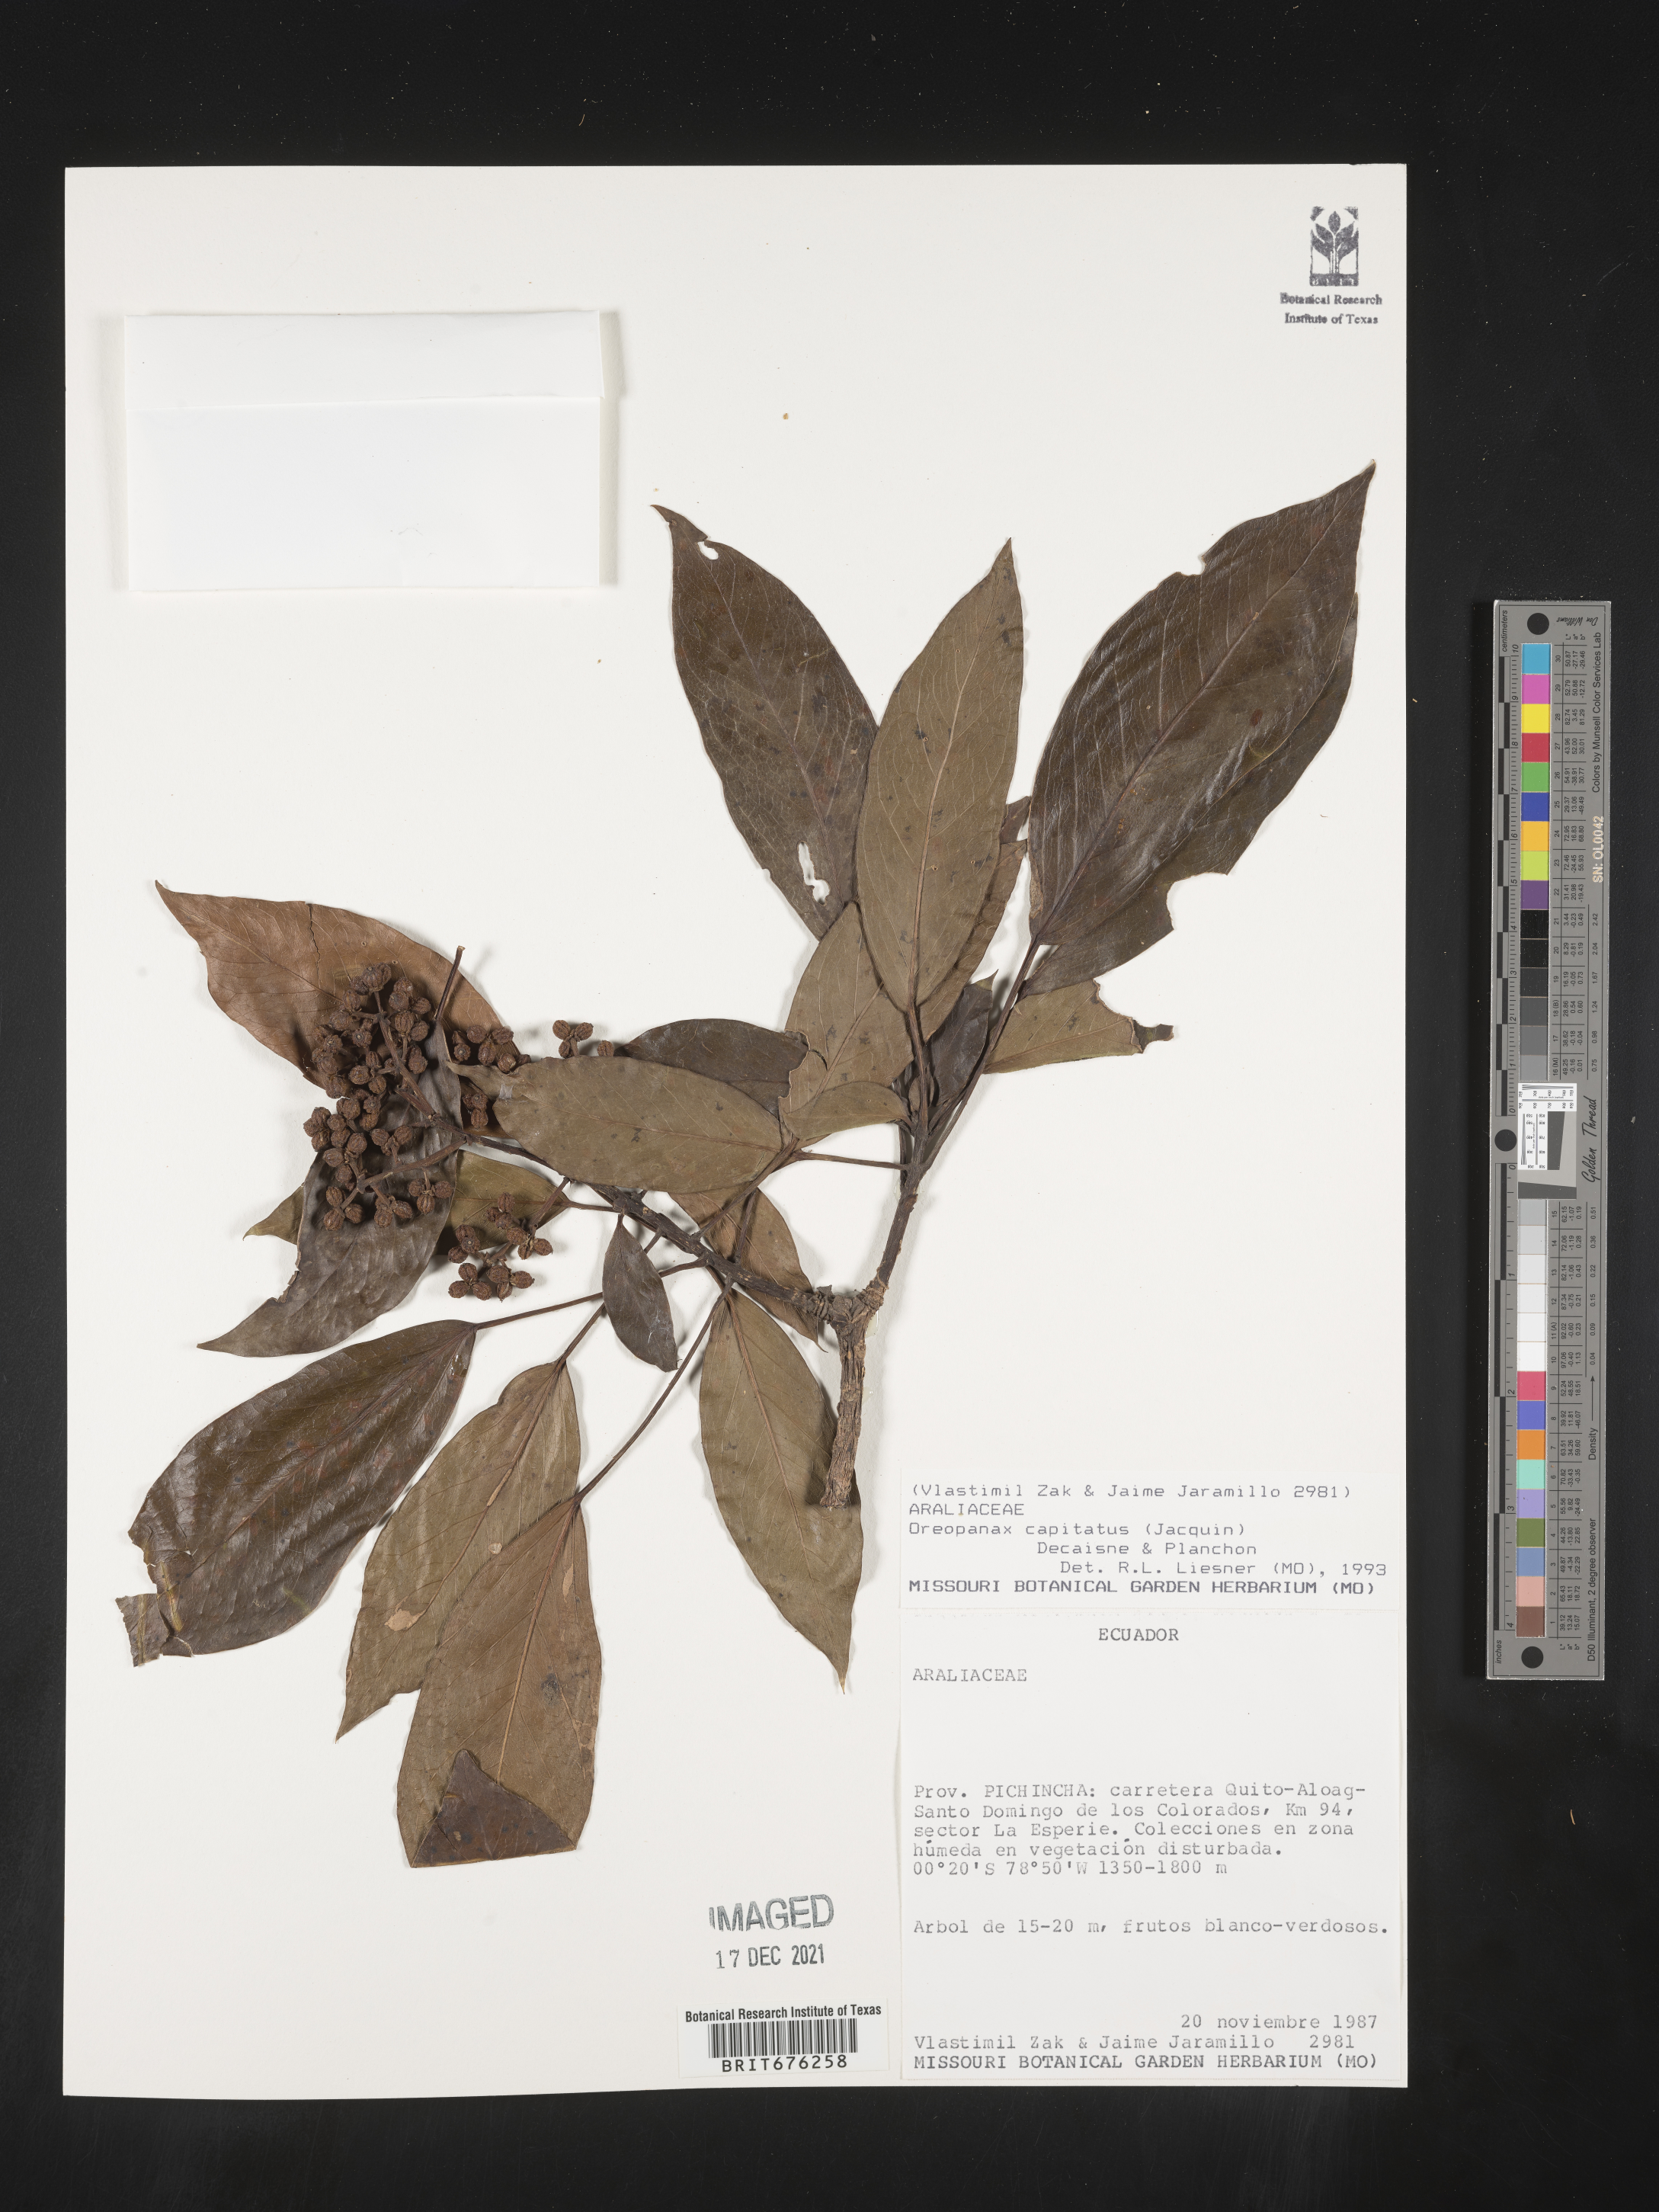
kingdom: Plantae
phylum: Tracheophyta
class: Magnoliopsida
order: Apiales
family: Araliaceae
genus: Oreopanax
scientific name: Oreopanax
